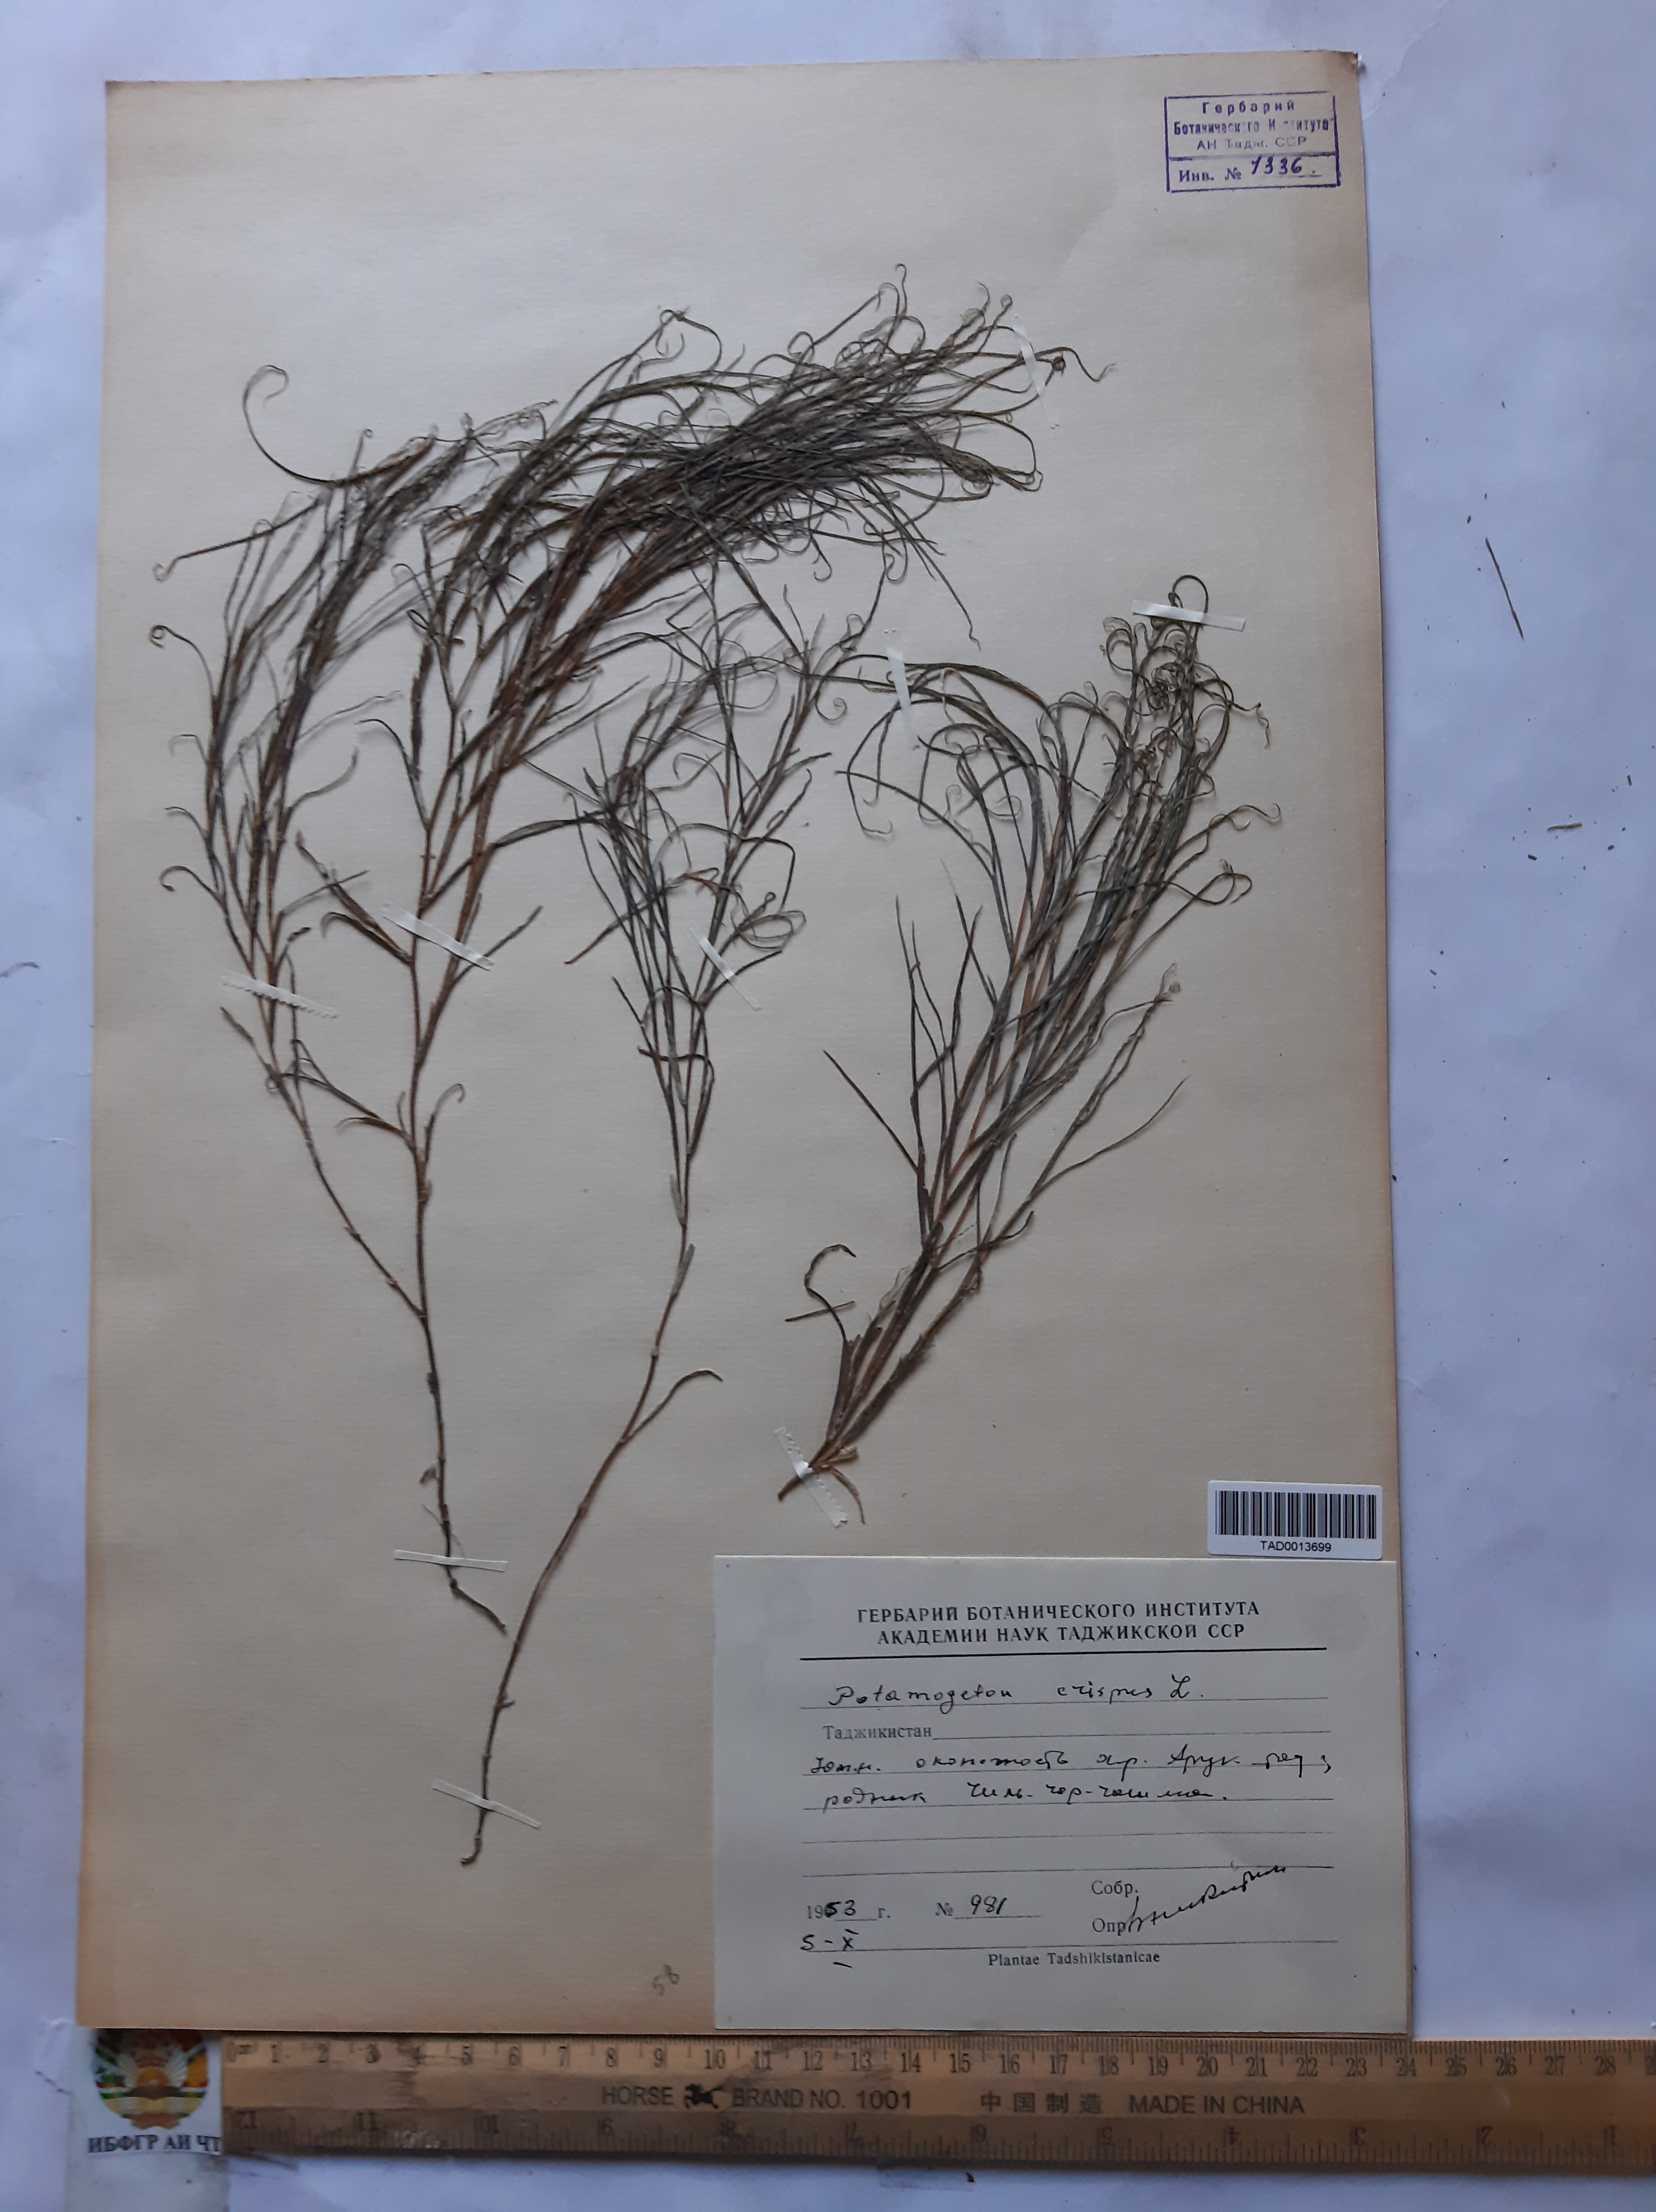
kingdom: Plantae
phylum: Tracheophyta
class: Liliopsida
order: Alismatales
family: Potamogetonaceae
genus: Potamogeton
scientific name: Potamogeton crispus
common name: Curled pondweed
